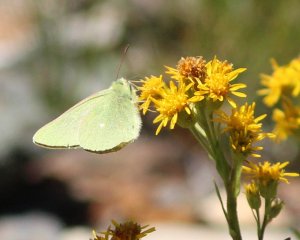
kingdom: Animalia
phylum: Arthropoda
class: Insecta
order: Lepidoptera
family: Pieridae
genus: Colias
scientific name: Colias behrii
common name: Sierra Sulphur
